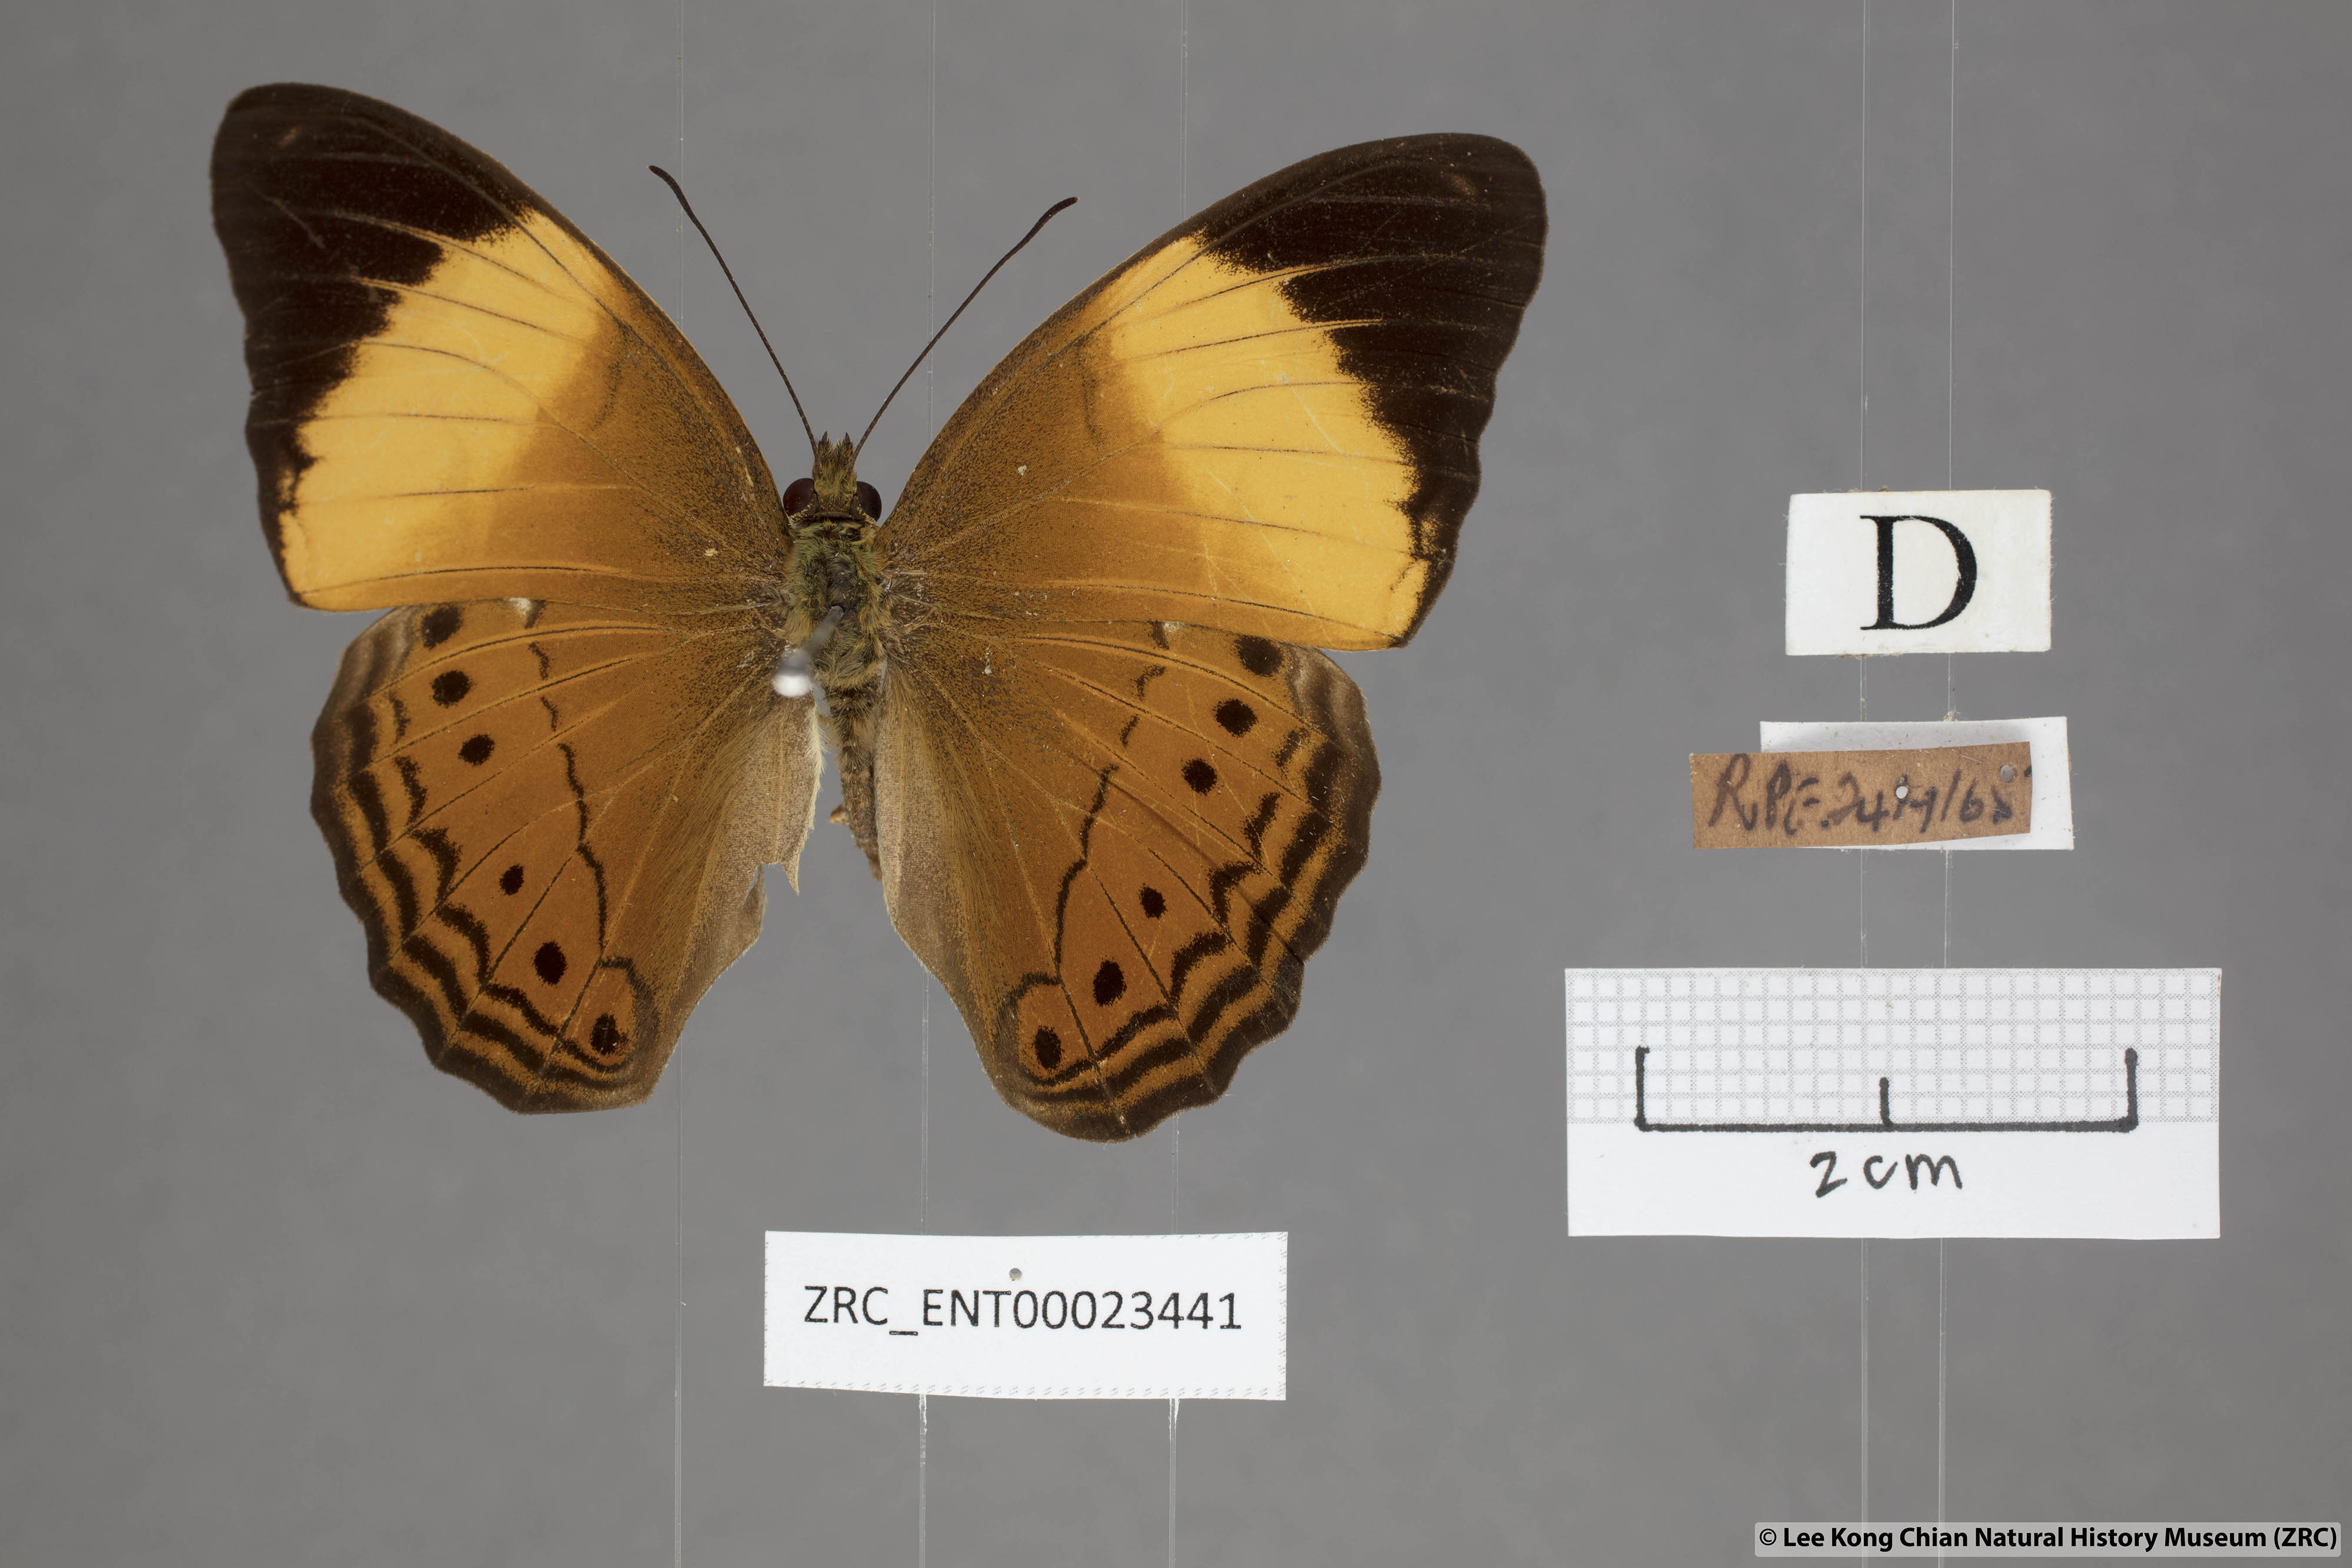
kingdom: Animalia
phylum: Arthropoda
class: Insecta
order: Lepidoptera
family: Nymphalidae
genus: Cirrochroa
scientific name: Cirrochroa orissa
